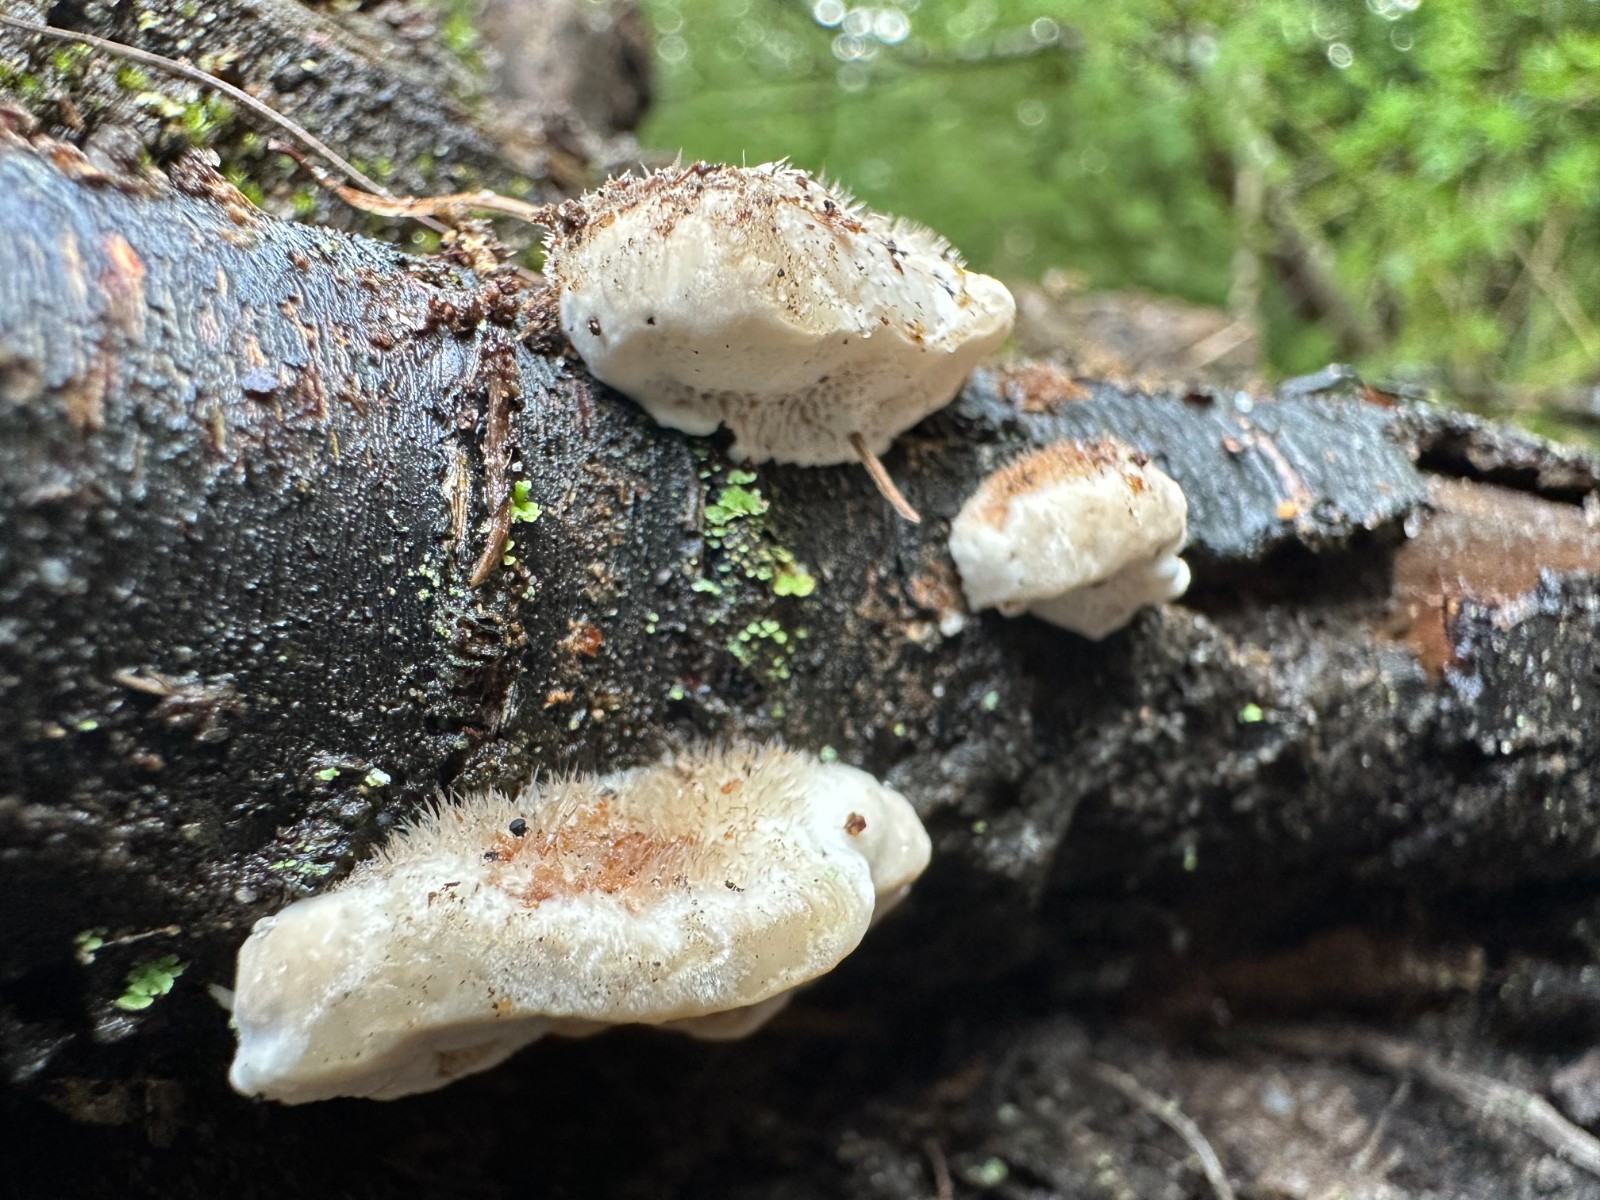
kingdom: Fungi
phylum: Basidiomycota
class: Agaricomycetes
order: Polyporales
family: Polyporaceae
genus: Trametes
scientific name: Trametes hirsuta
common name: håret læderporesvamp
